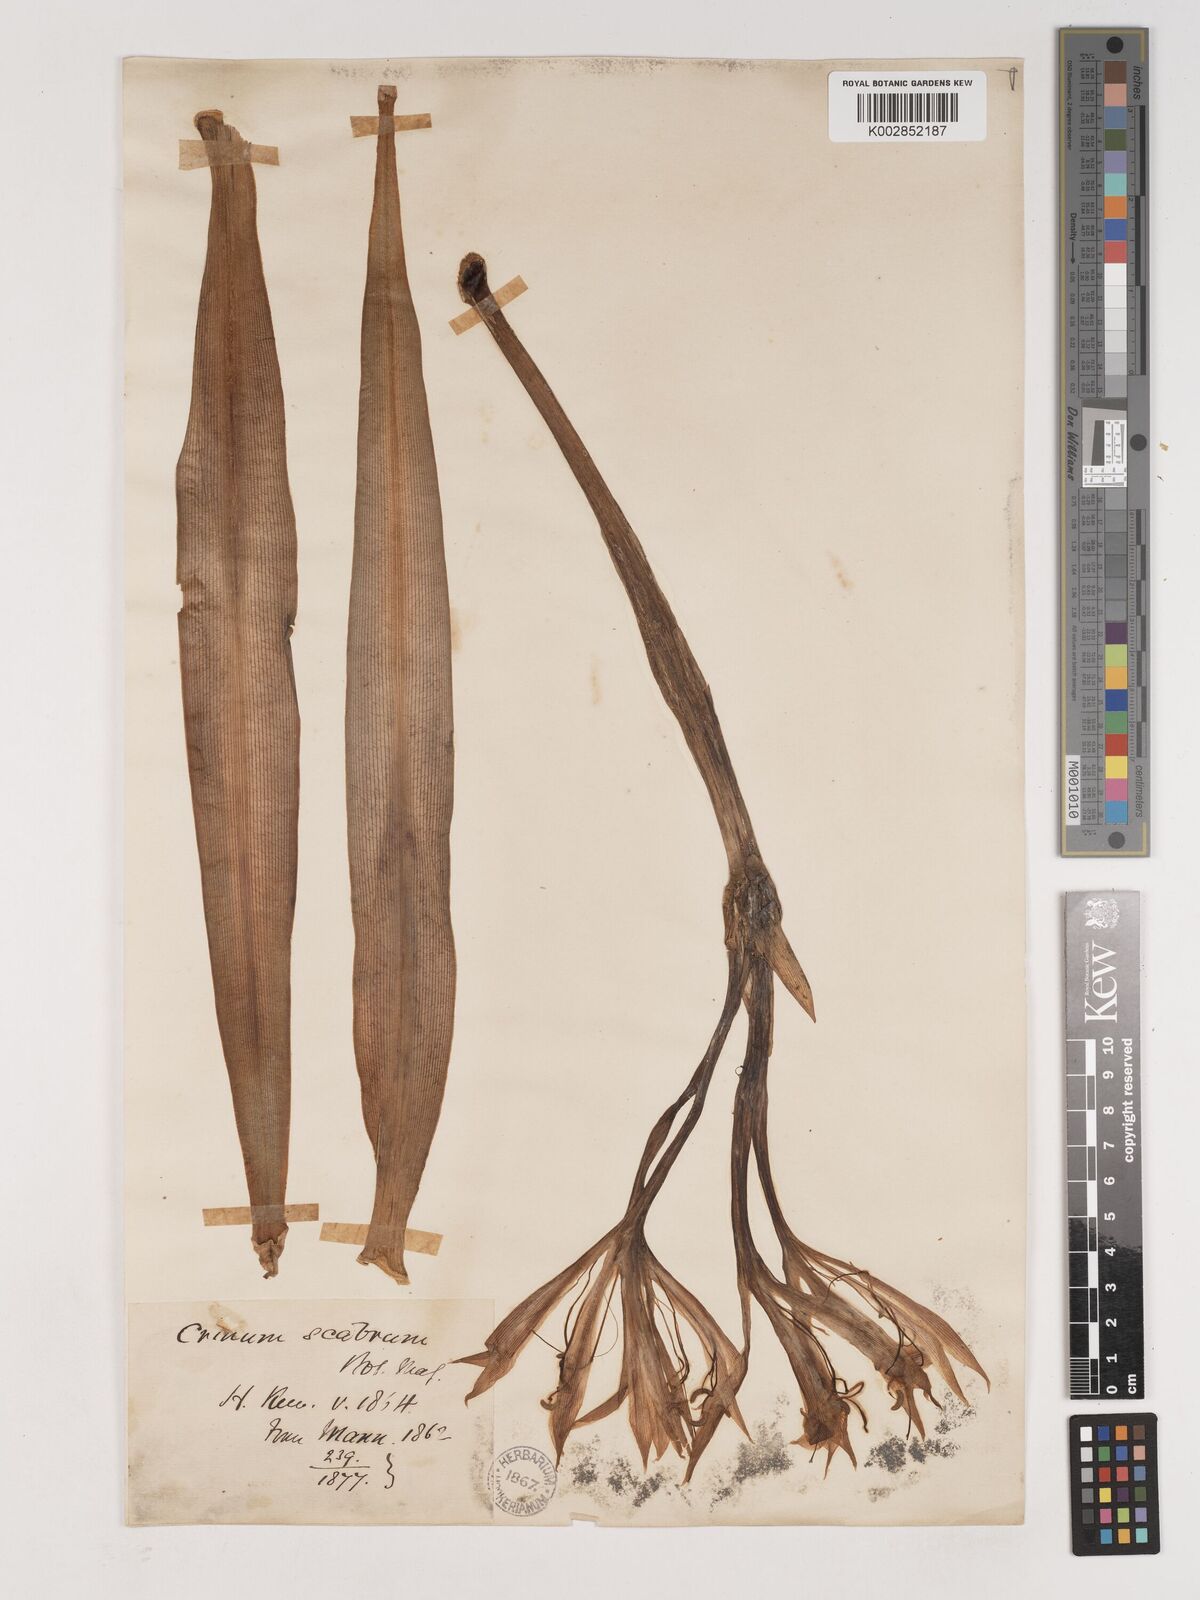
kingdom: Plantae
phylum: Tracheophyta
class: Liliopsida
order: Asparagales
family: Amaryllidaceae
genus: Crinum
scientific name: Crinum ornatum
